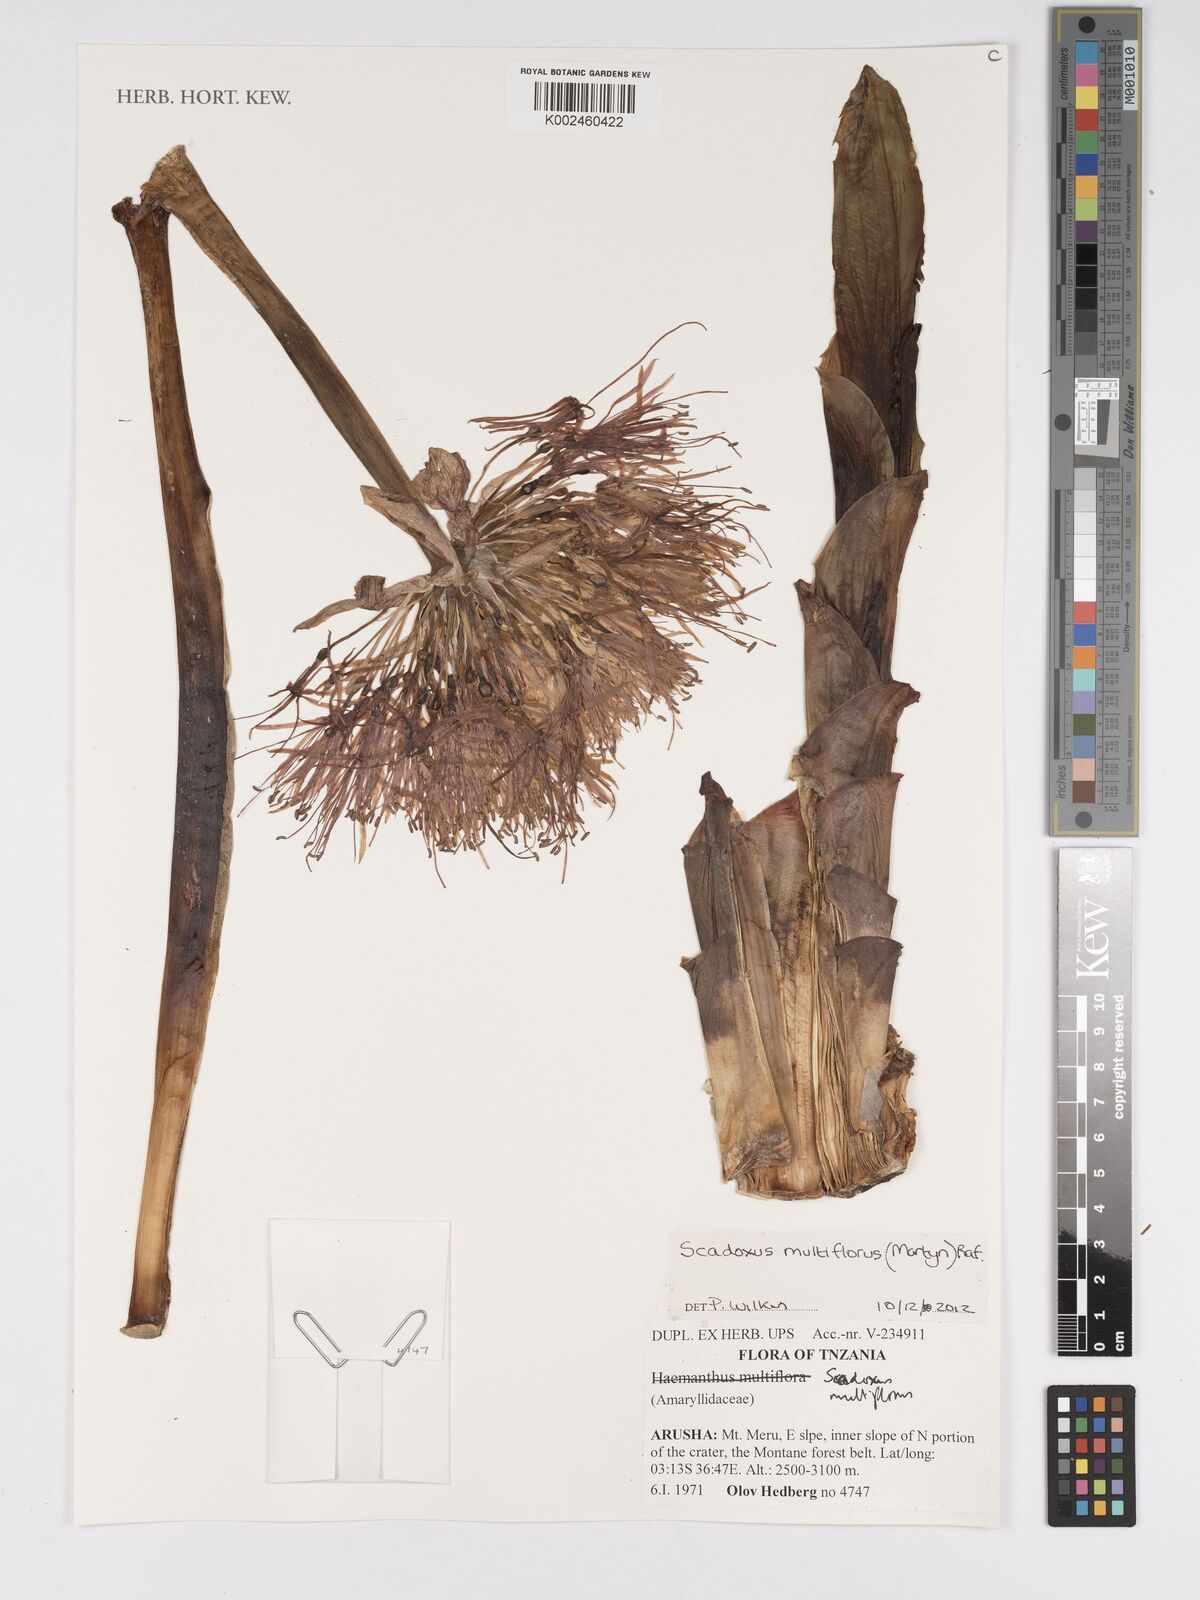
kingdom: Plantae
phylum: Tracheophyta
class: Liliopsida
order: Asparagales
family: Amaryllidaceae
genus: Scadoxus
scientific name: Scadoxus multiflorus
